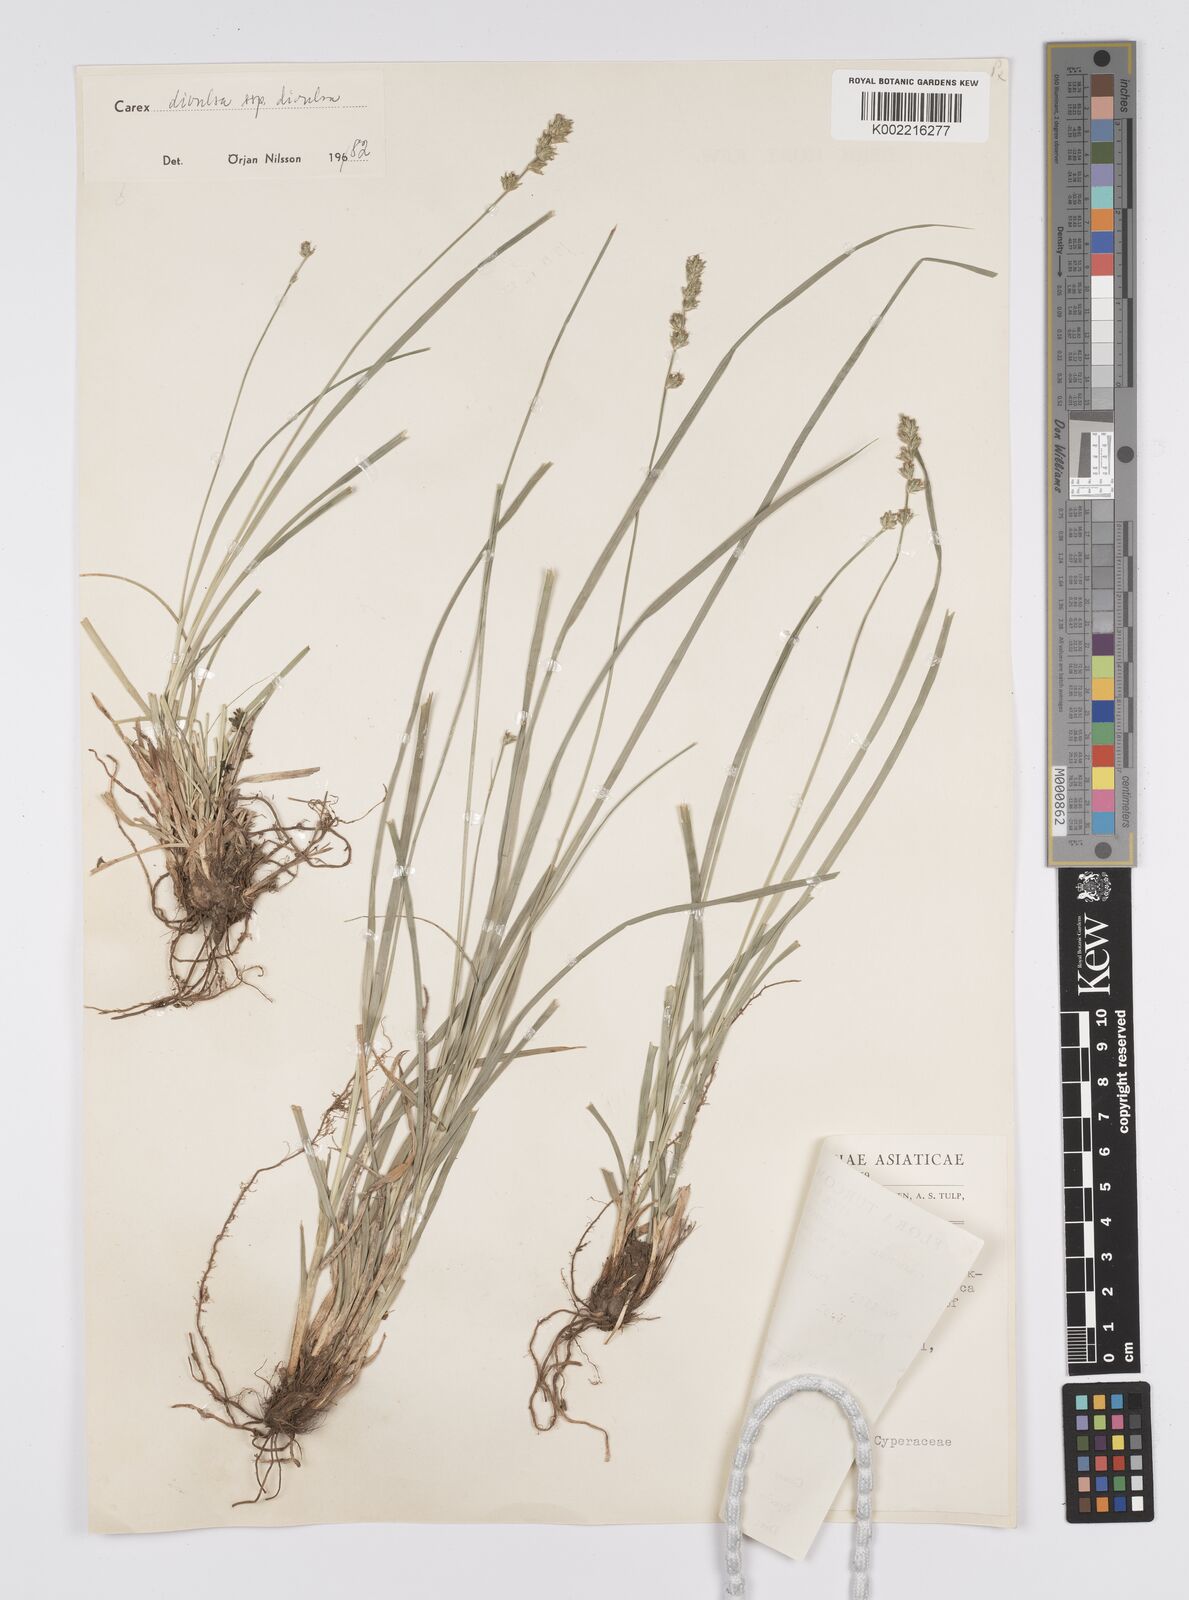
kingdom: Plantae
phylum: Tracheophyta
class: Liliopsida
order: Poales
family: Cyperaceae
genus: Carex
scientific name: Carex divulsa
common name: Grassland sedge
